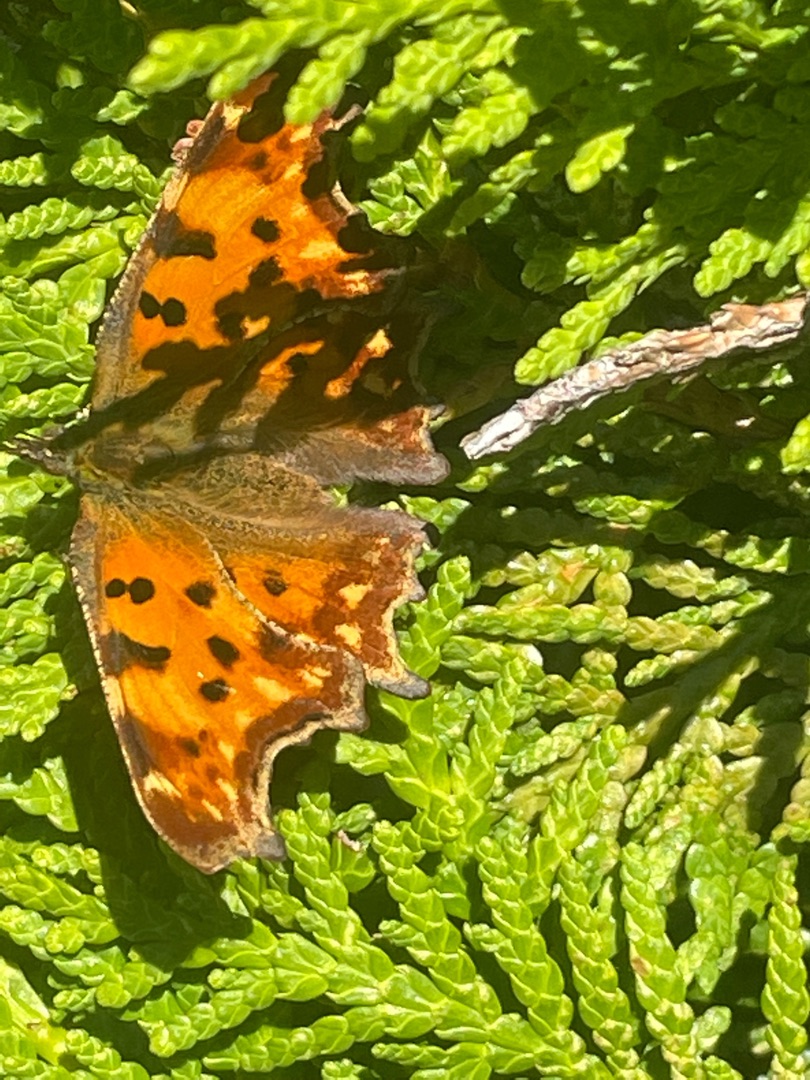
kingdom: Animalia
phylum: Arthropoda
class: Insecta
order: Lepidoptera
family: Nymphalidae
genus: Polygonia
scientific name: Polygonia c-album
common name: Det hvide C
